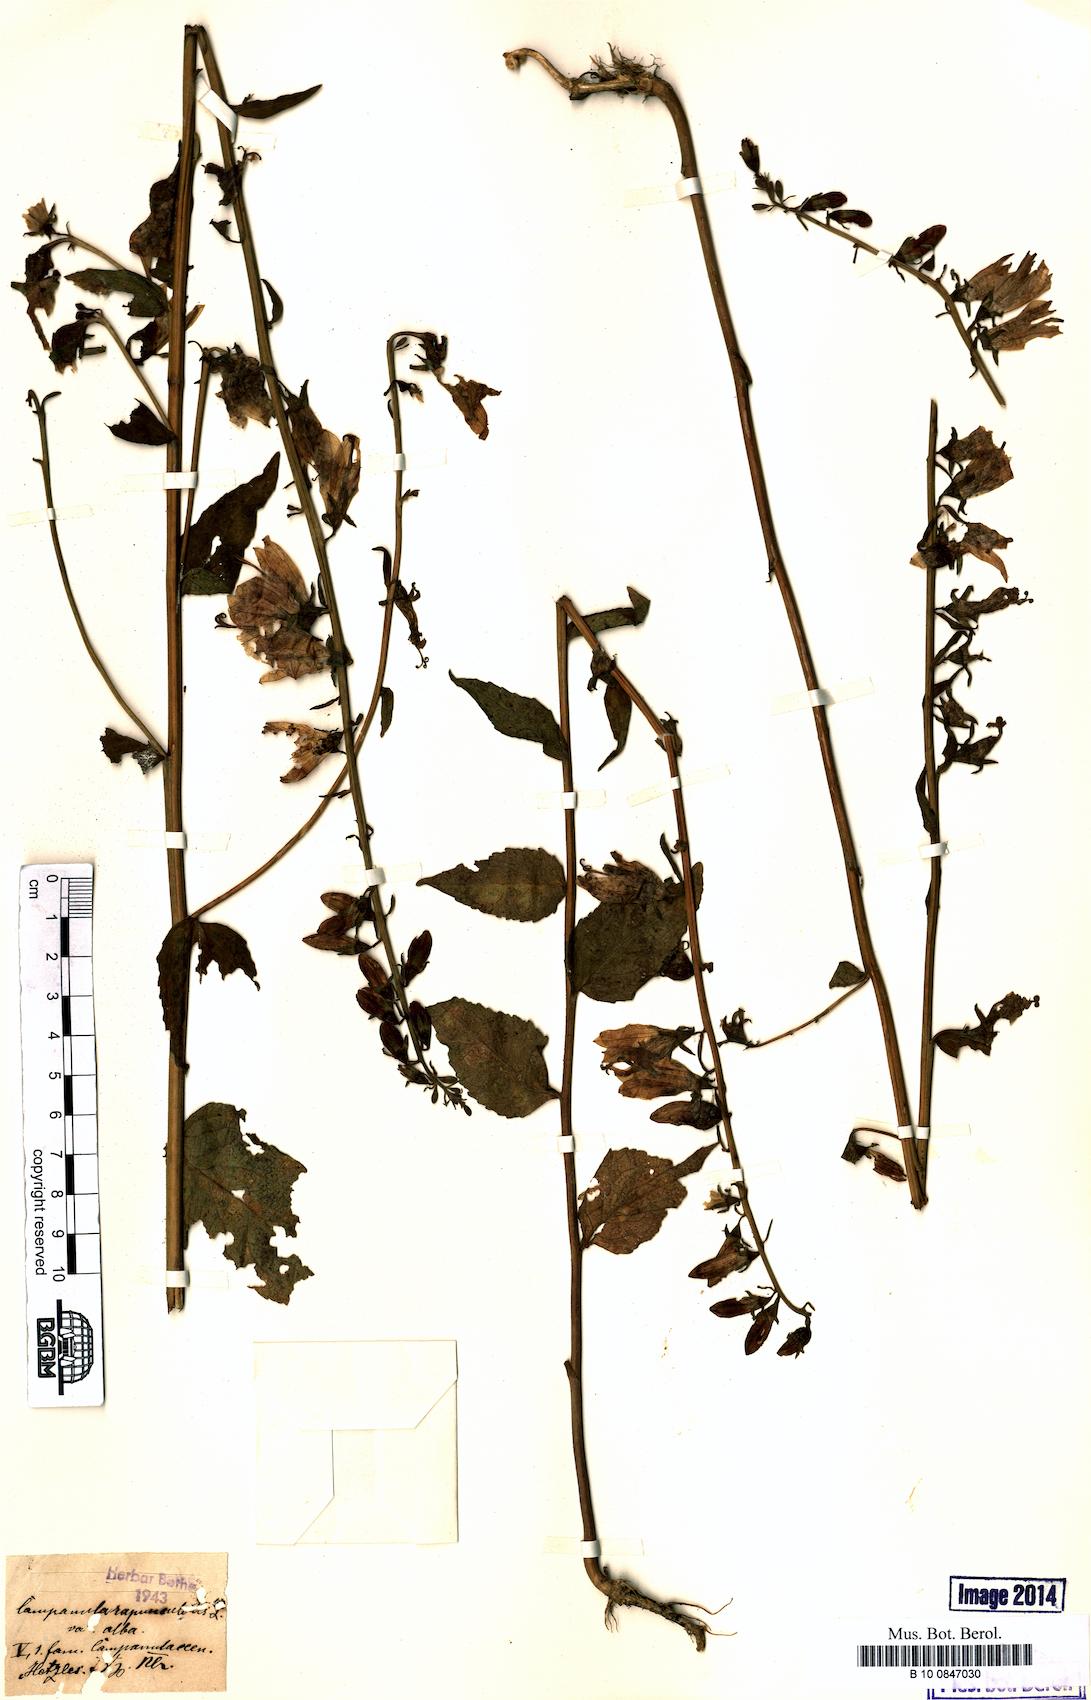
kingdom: Plantae
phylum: Tracheophyta
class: Magnoliopsida
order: Asterales
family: Campanulaceae
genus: Campanula
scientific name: Campanula rapunculoides
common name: Creeping bellflower
